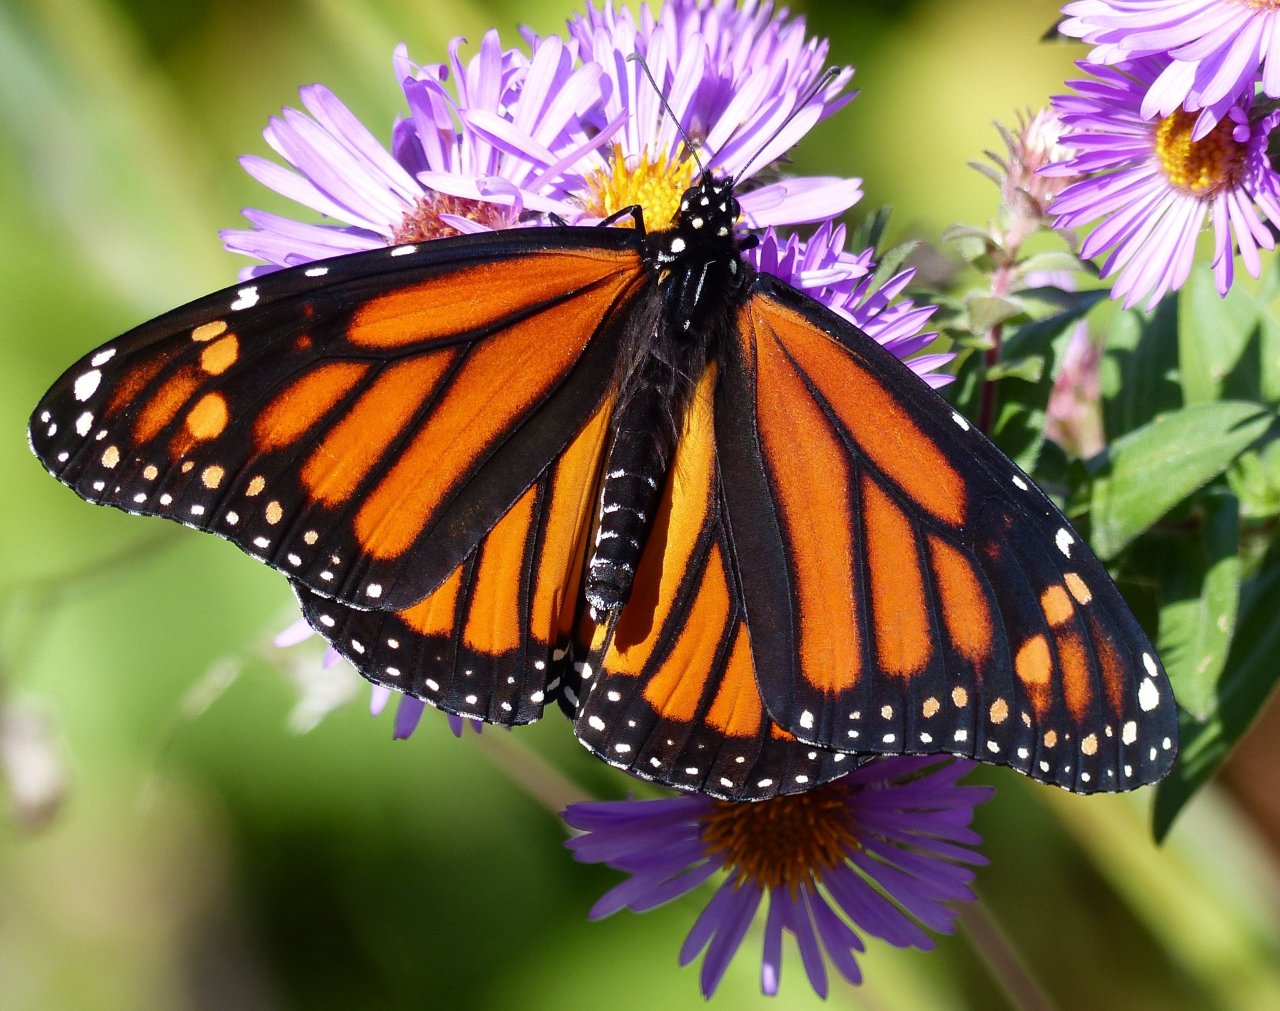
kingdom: Animalia
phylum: Arthropoda
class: Insecta
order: Lepidoptera
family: Nymphalidae
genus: Danaus
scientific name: Danaus plexippus
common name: Monarch
